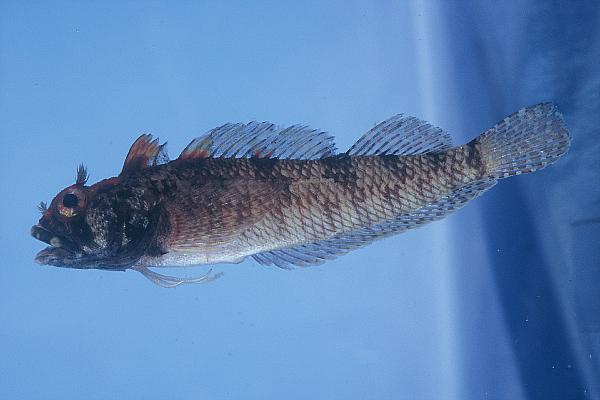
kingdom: Animalia
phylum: Chordata
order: Perciformes
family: Tripterygiidae
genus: Cremnochorites
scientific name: Cremnochorites capensis
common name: Cape triplefin
